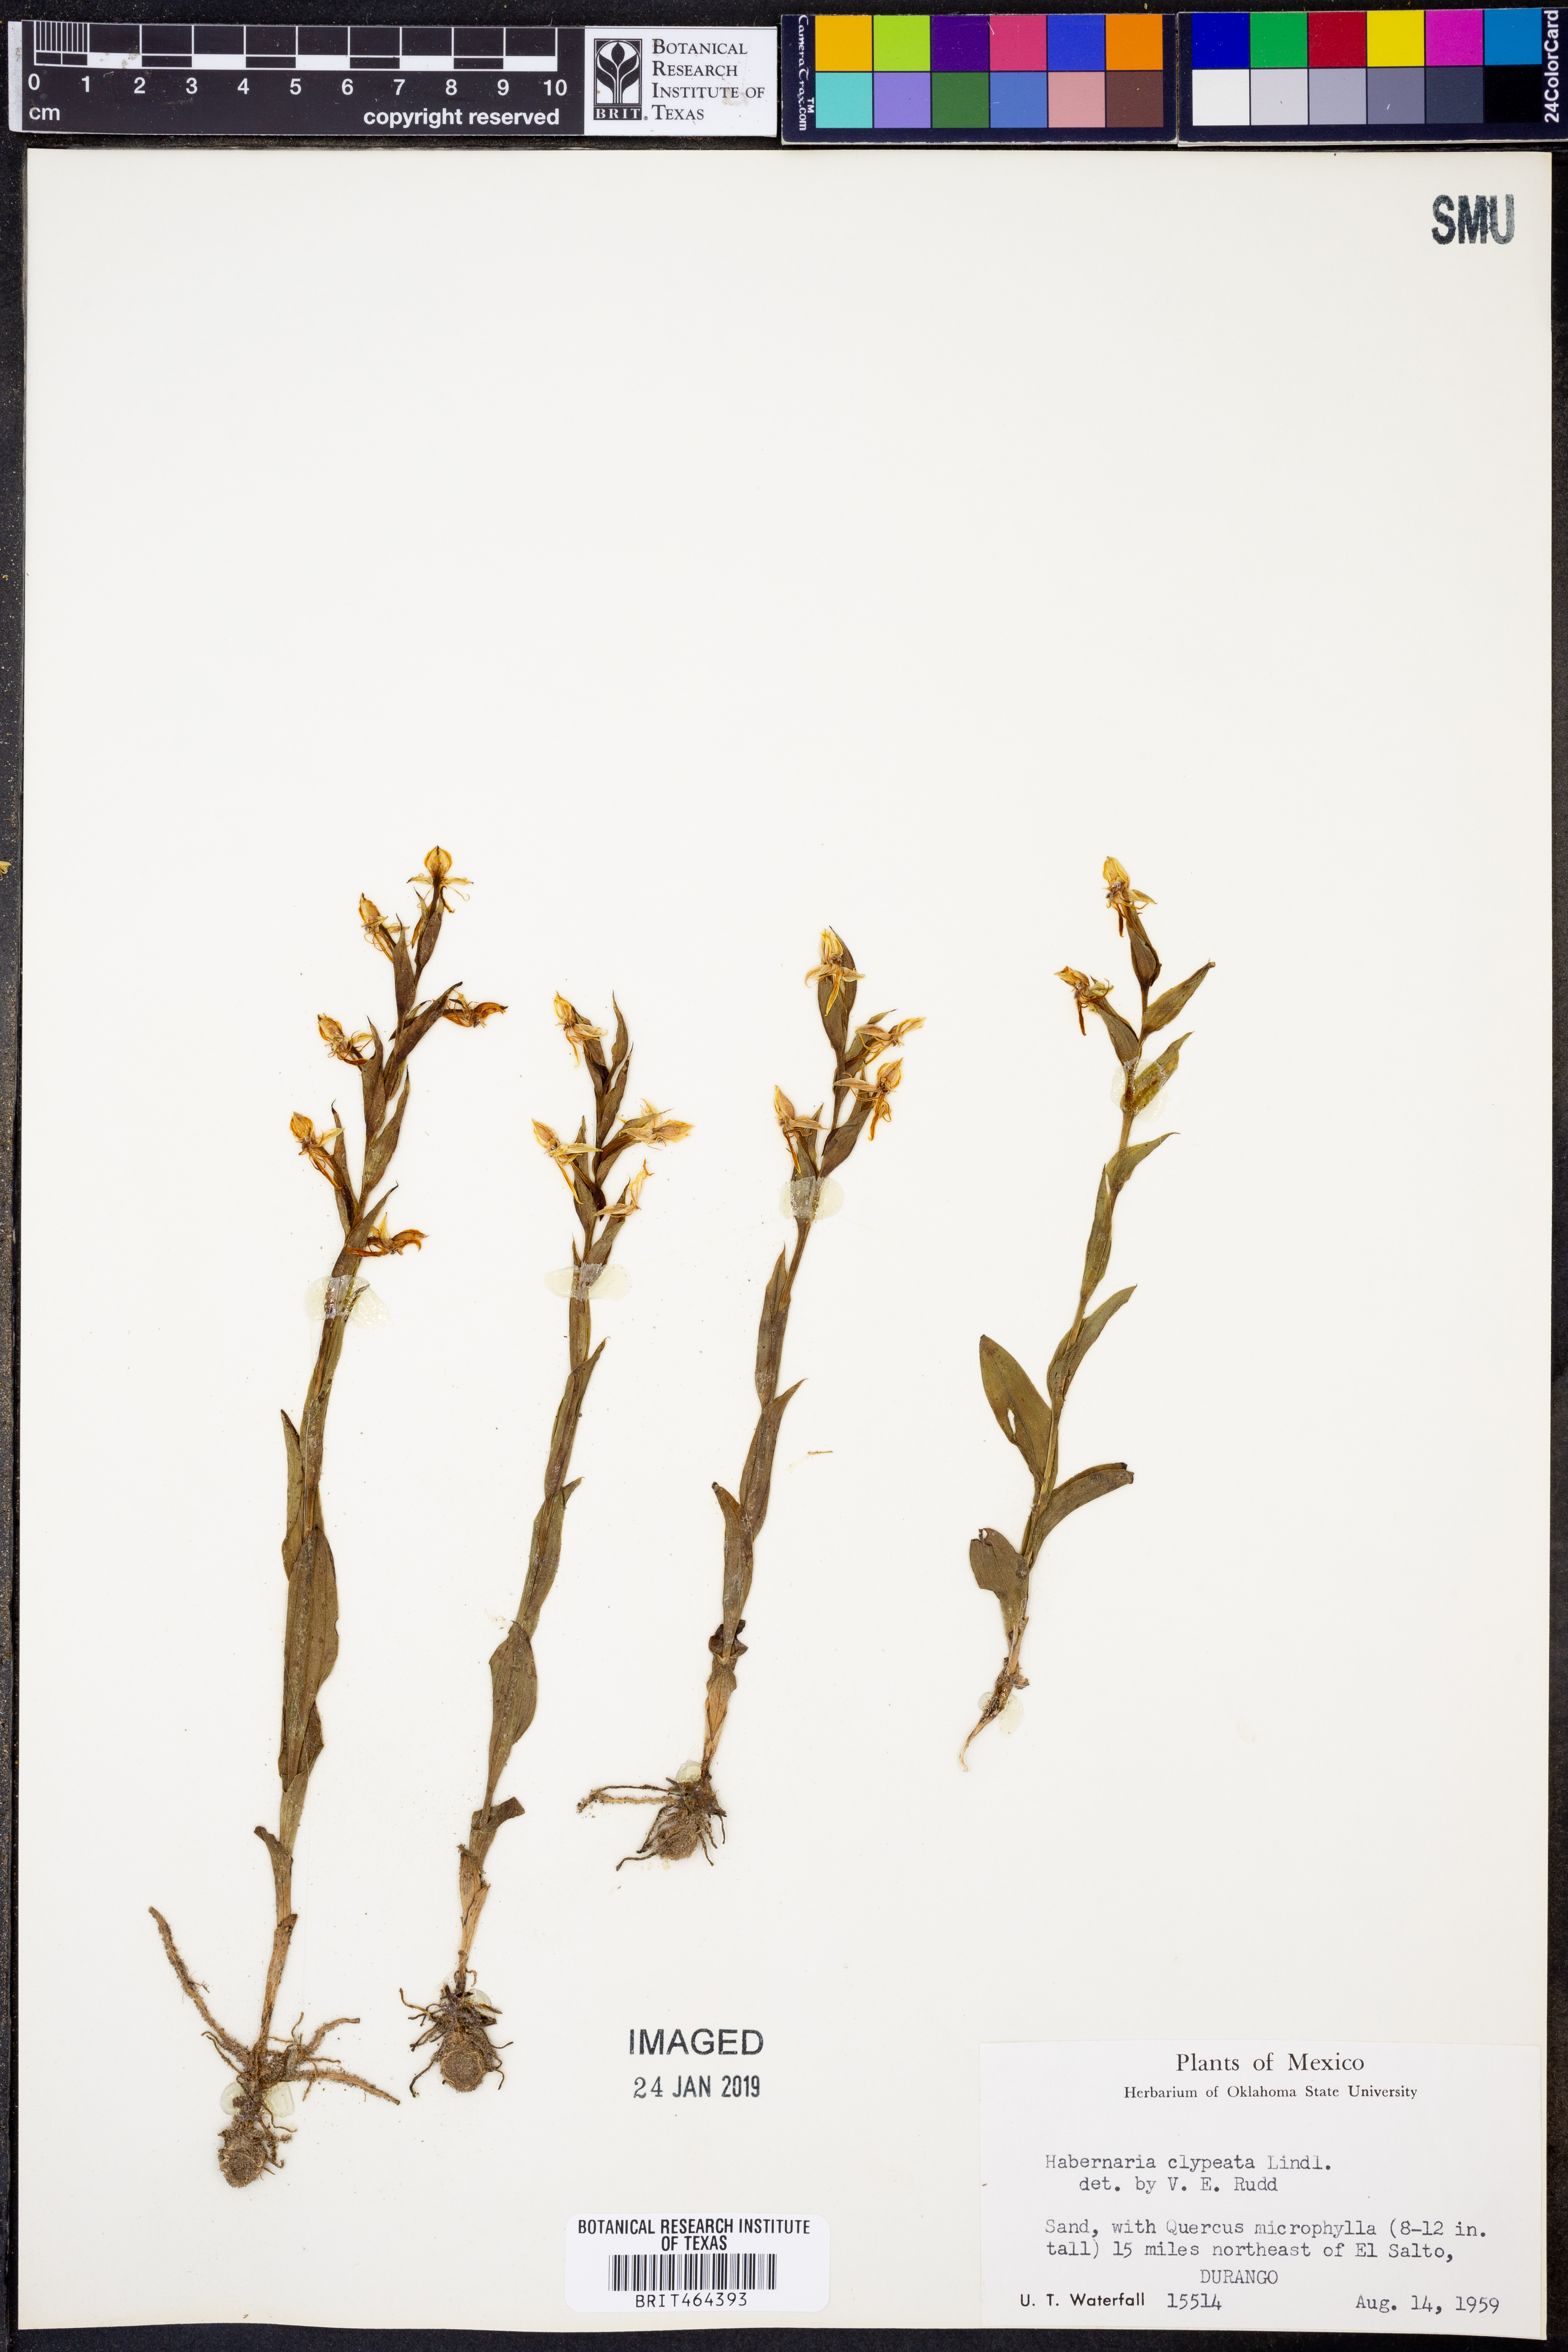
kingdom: Plantae
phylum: Tracheophyta
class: Liliopsida
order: Asparagales
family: Orchidaceae
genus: Habenaria
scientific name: Habenaria clypeata
